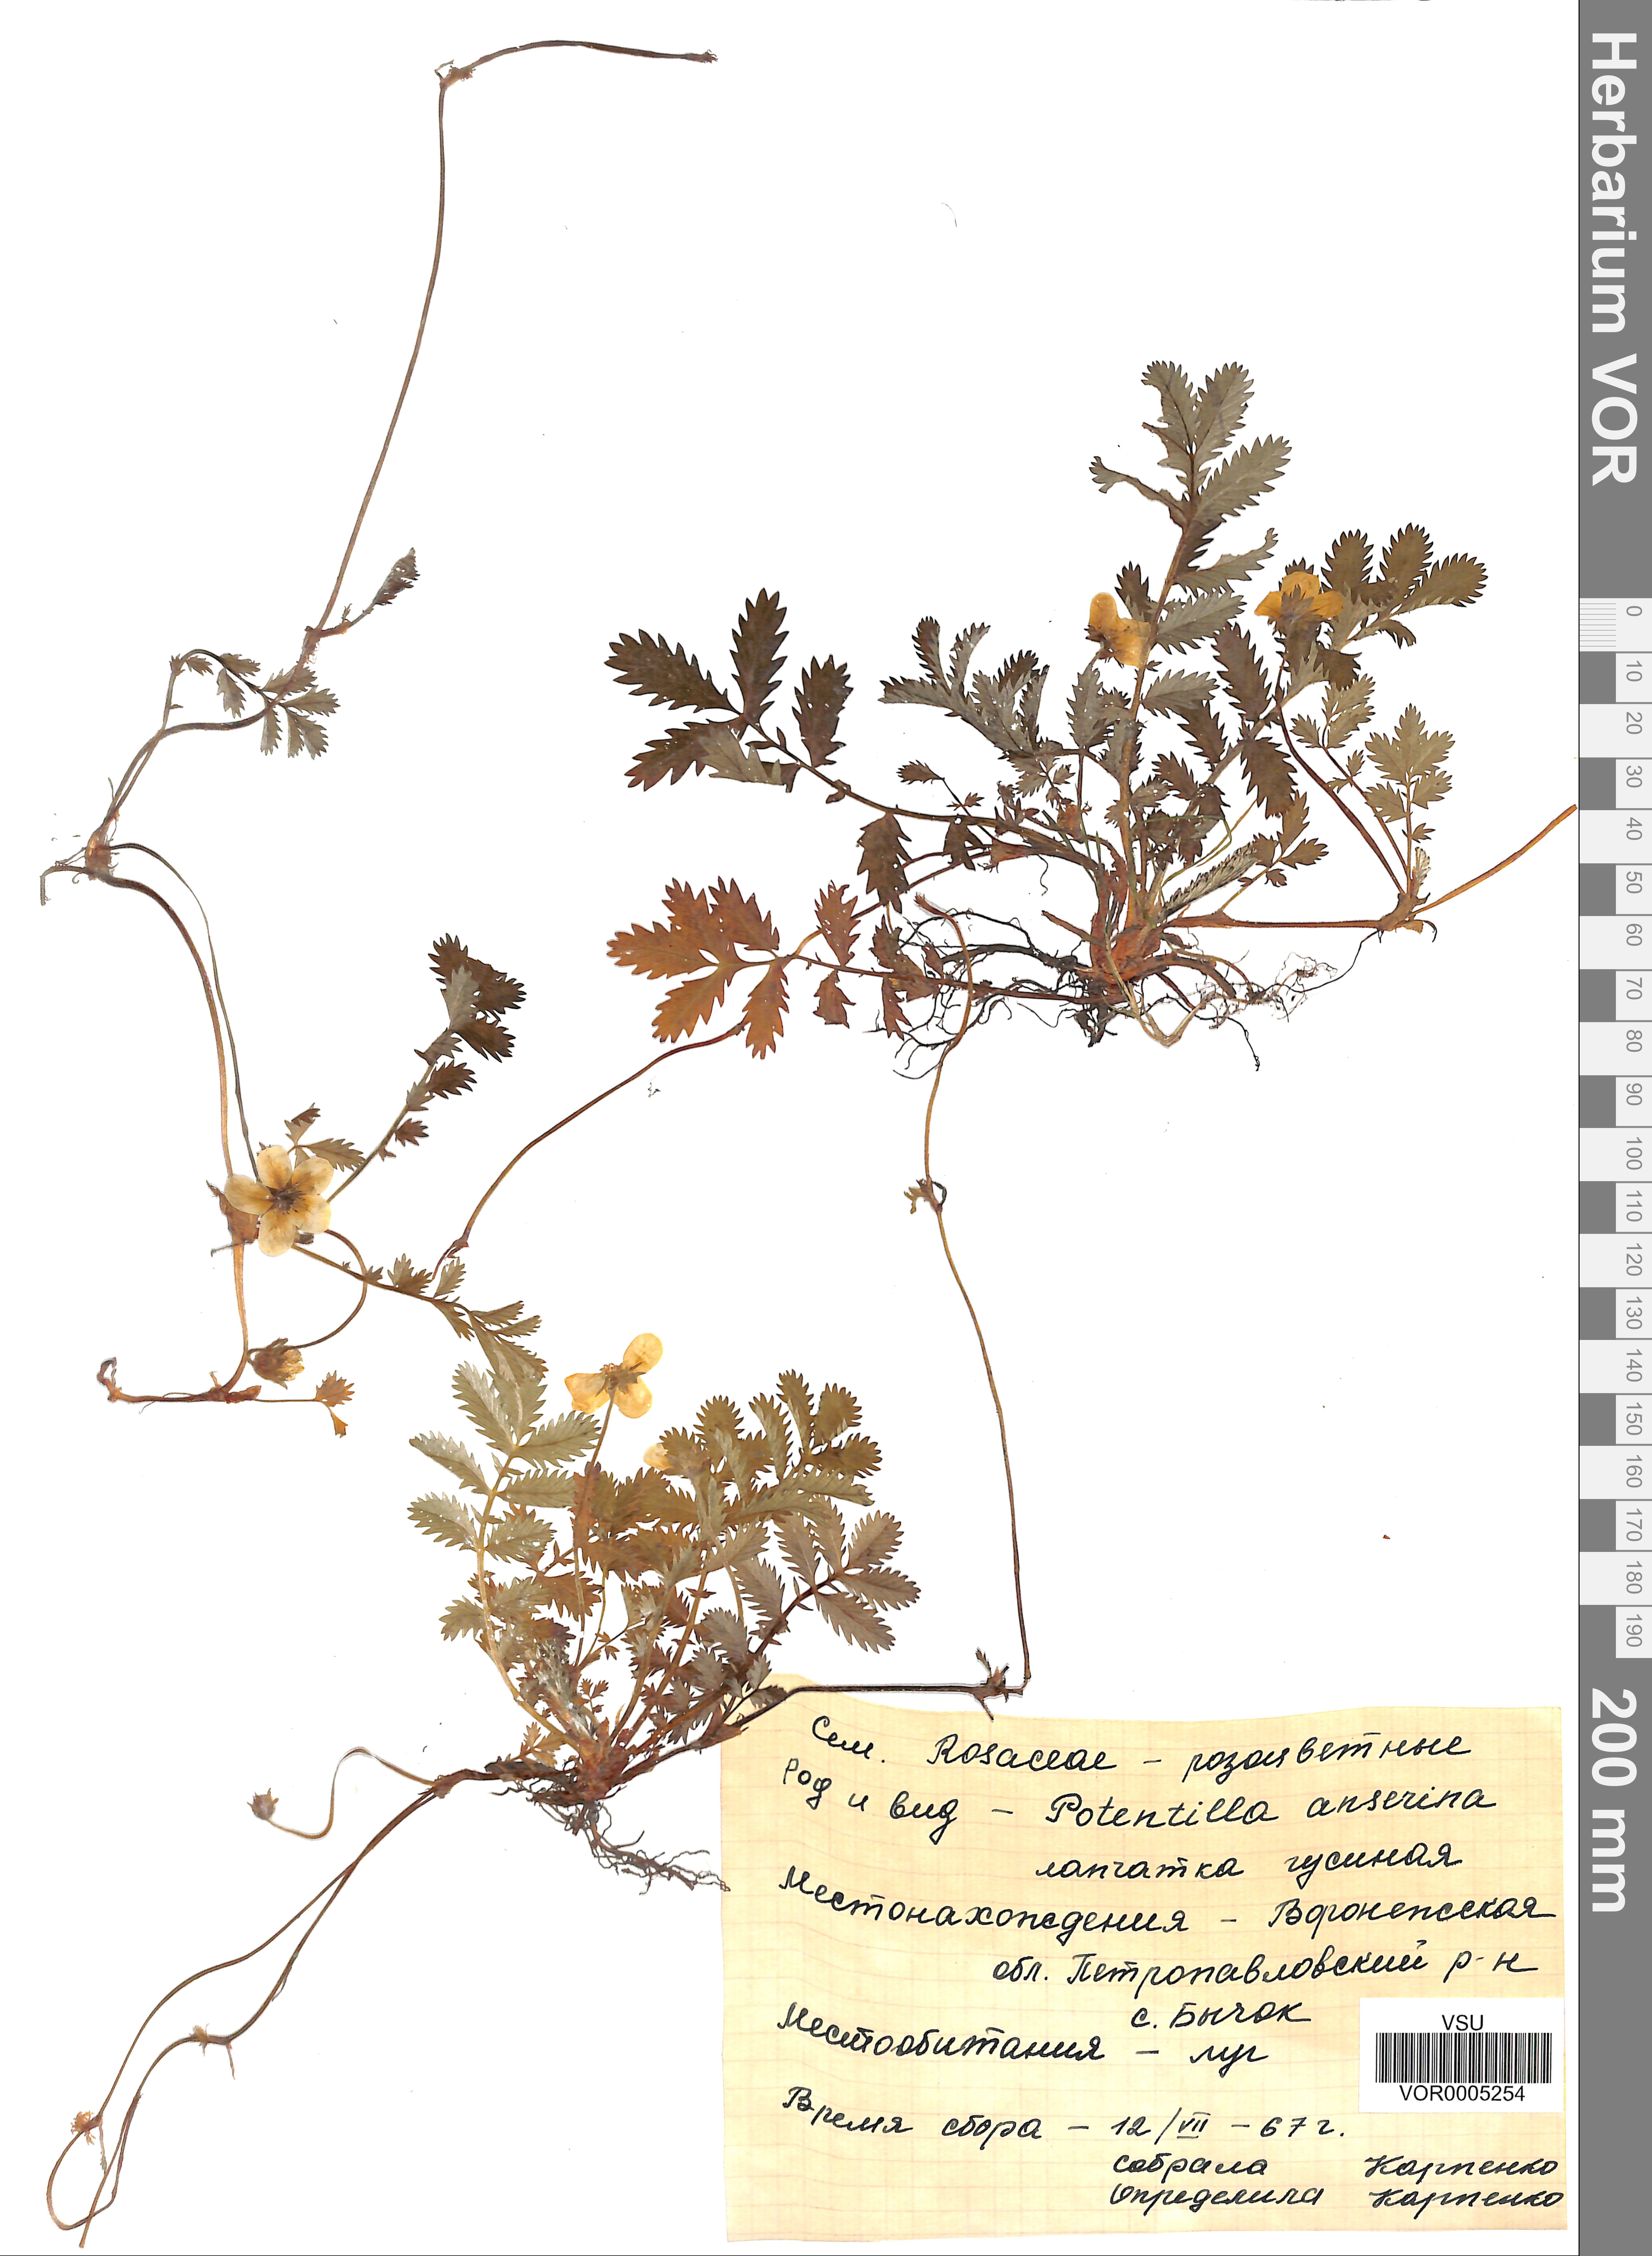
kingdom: Plantae
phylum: Tracheophyta
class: Magnoliopsida
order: Rosales
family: Rosaceae
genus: Argentina
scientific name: Argentina anserina
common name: Common silverweed
